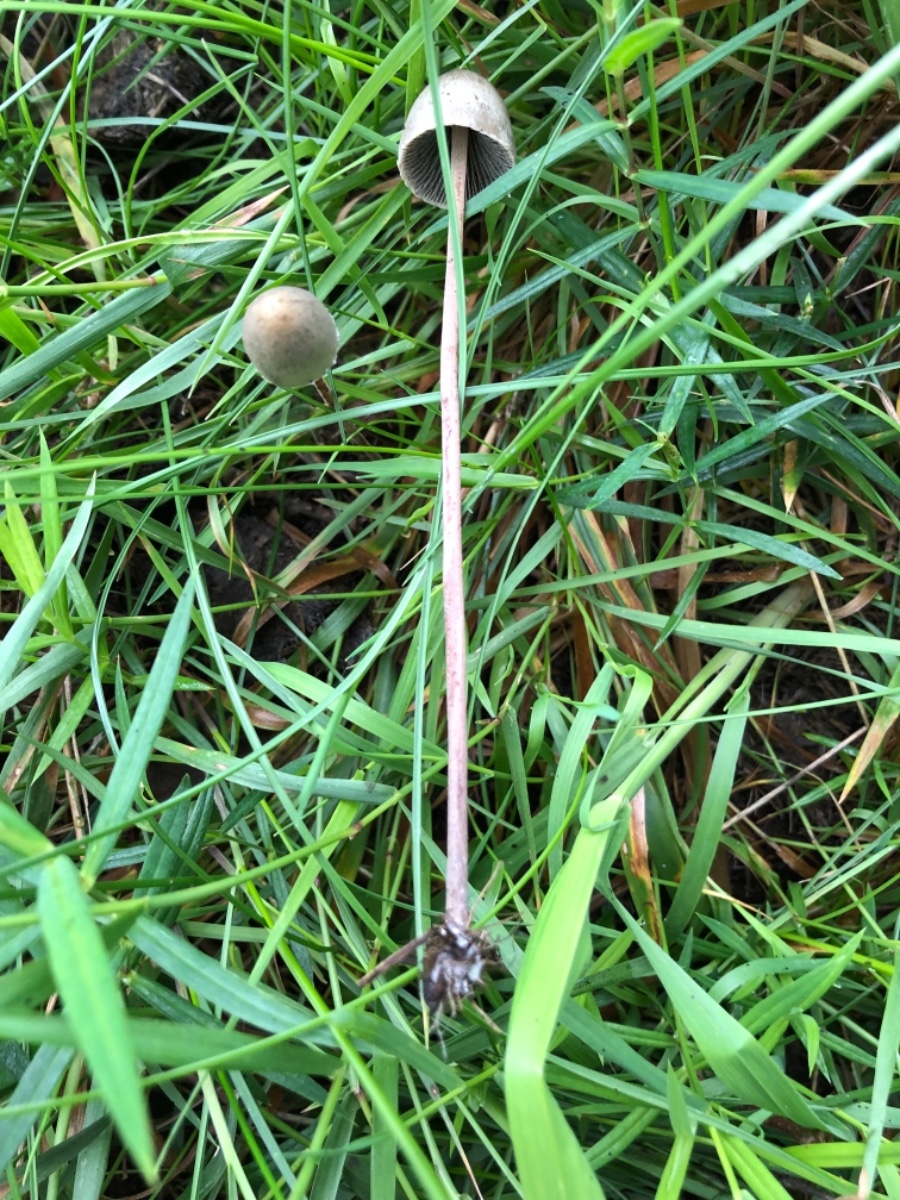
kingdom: Fungi
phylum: Basidiomycota
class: Agaricomycetes
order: Agaricales
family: Bolbitiaceae
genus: Panaeolus
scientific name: Panaeolus papilionaceus
